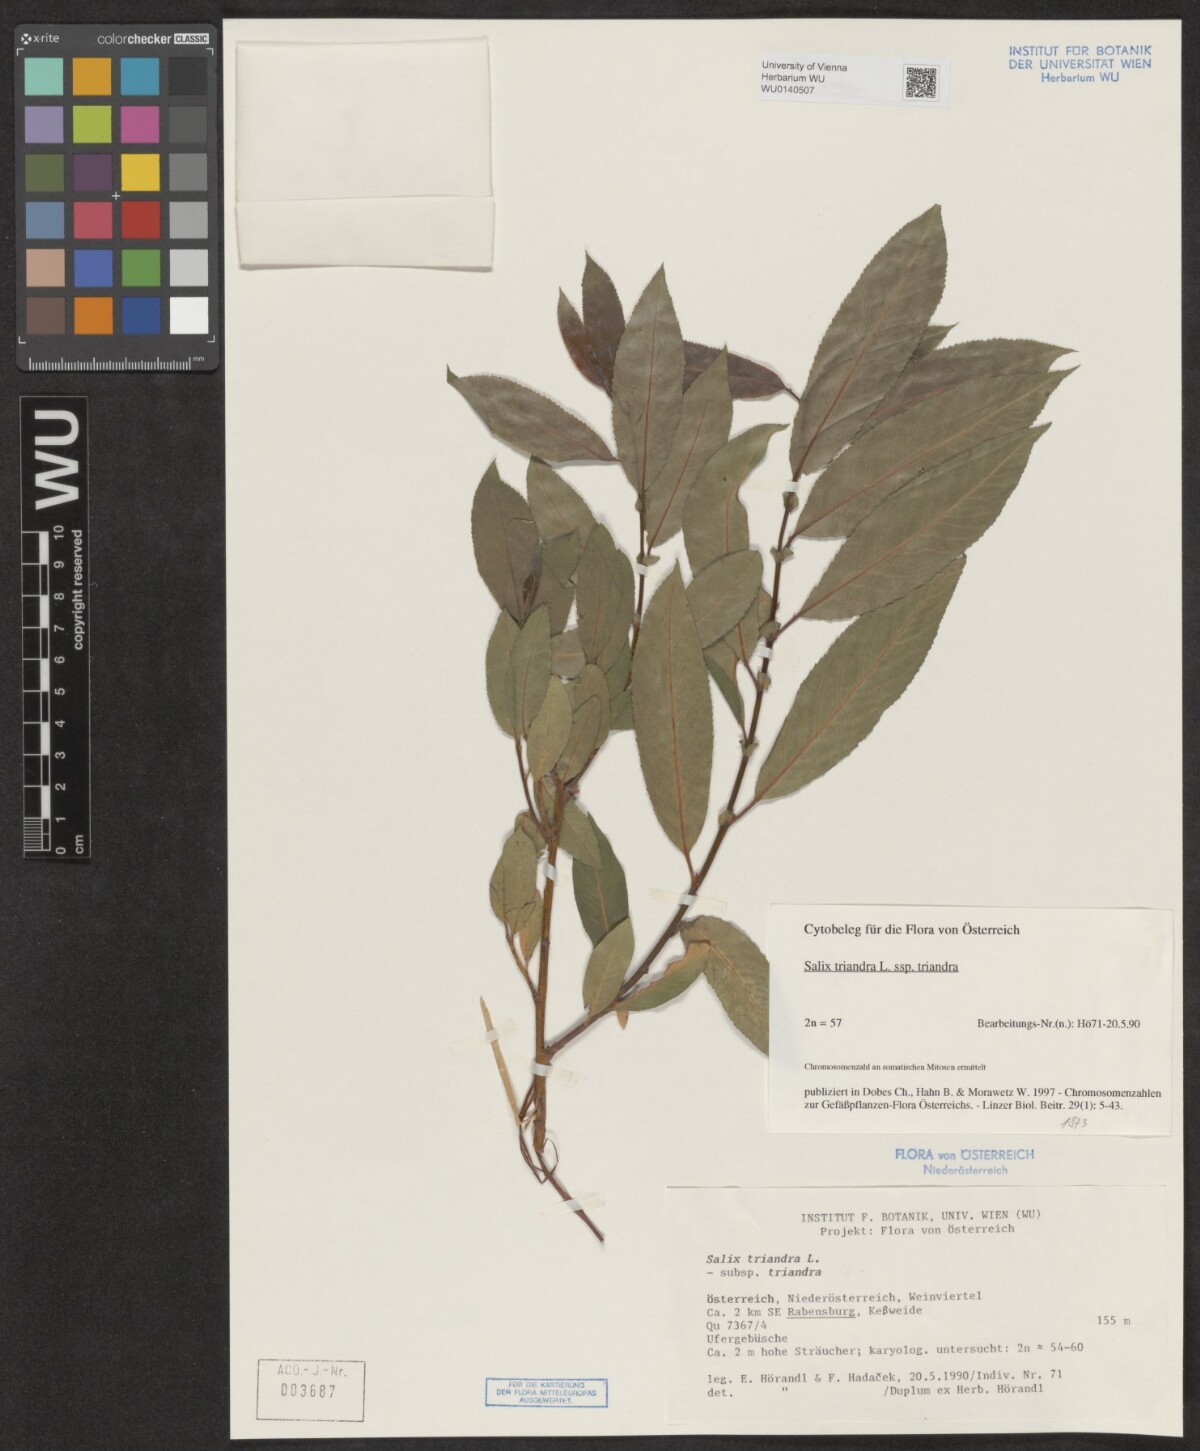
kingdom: Plantae
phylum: Tracheophyta
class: Magnoliopsida
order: Malpighiales
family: Salicaceae
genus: Salix
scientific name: Salix triandra
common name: Almond willow
